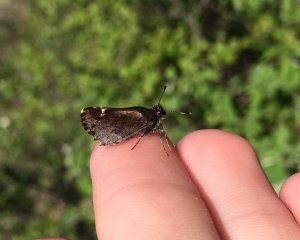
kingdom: Animalia
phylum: Arthropoda
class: Insecta
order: Lepidoptera
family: Hesperiidae
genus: Mastor
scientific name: Mastor vialis
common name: Common Roadside-Skipper
